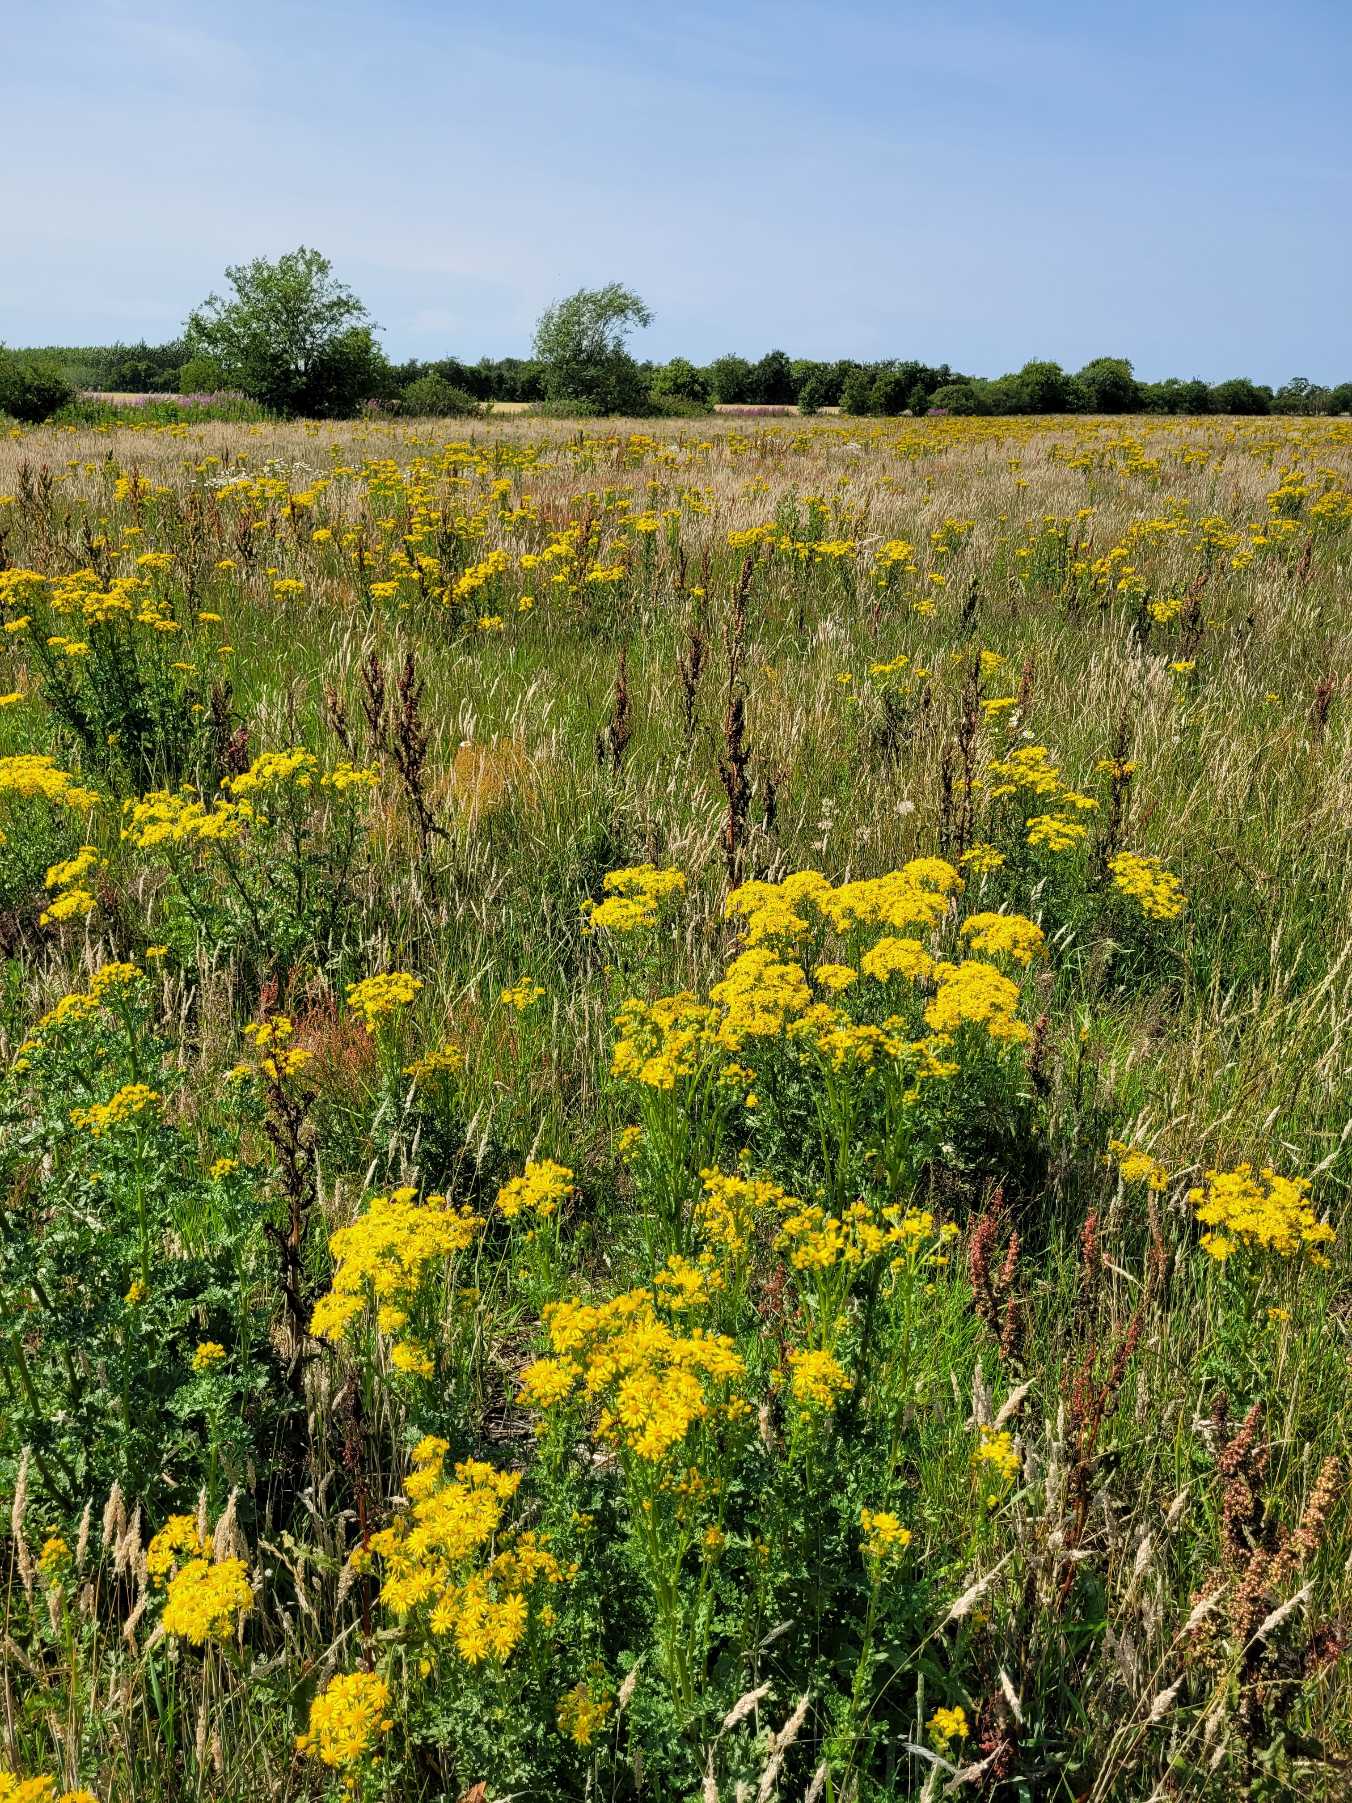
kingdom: Plantae
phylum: Tracheophyta
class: Magnoliopsida
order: Asterales
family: Asteraceae
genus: Jacobaea
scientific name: Jacobaea vulgaris
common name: Eng-brandbæger
